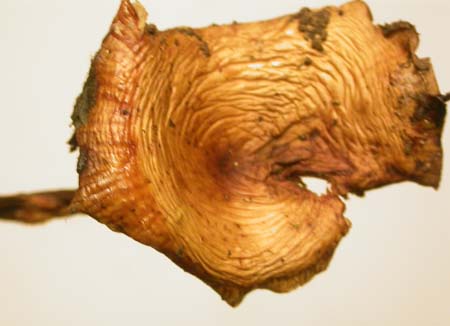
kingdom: Fungi
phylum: Basidiomycota
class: Agaricomycetes
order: Agaricales
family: Physalacriaceae
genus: Flammulina
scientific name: Flammulina elastica
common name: pile-fløjlsfod
